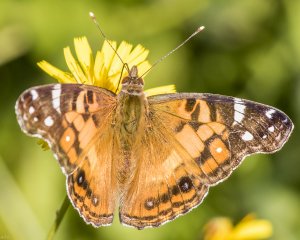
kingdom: Animalia
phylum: Arthropoda
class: Insecta
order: Lepidoptera
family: Nymphalidae
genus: Vanessa
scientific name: Vanessa virginiensis
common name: American Lady
